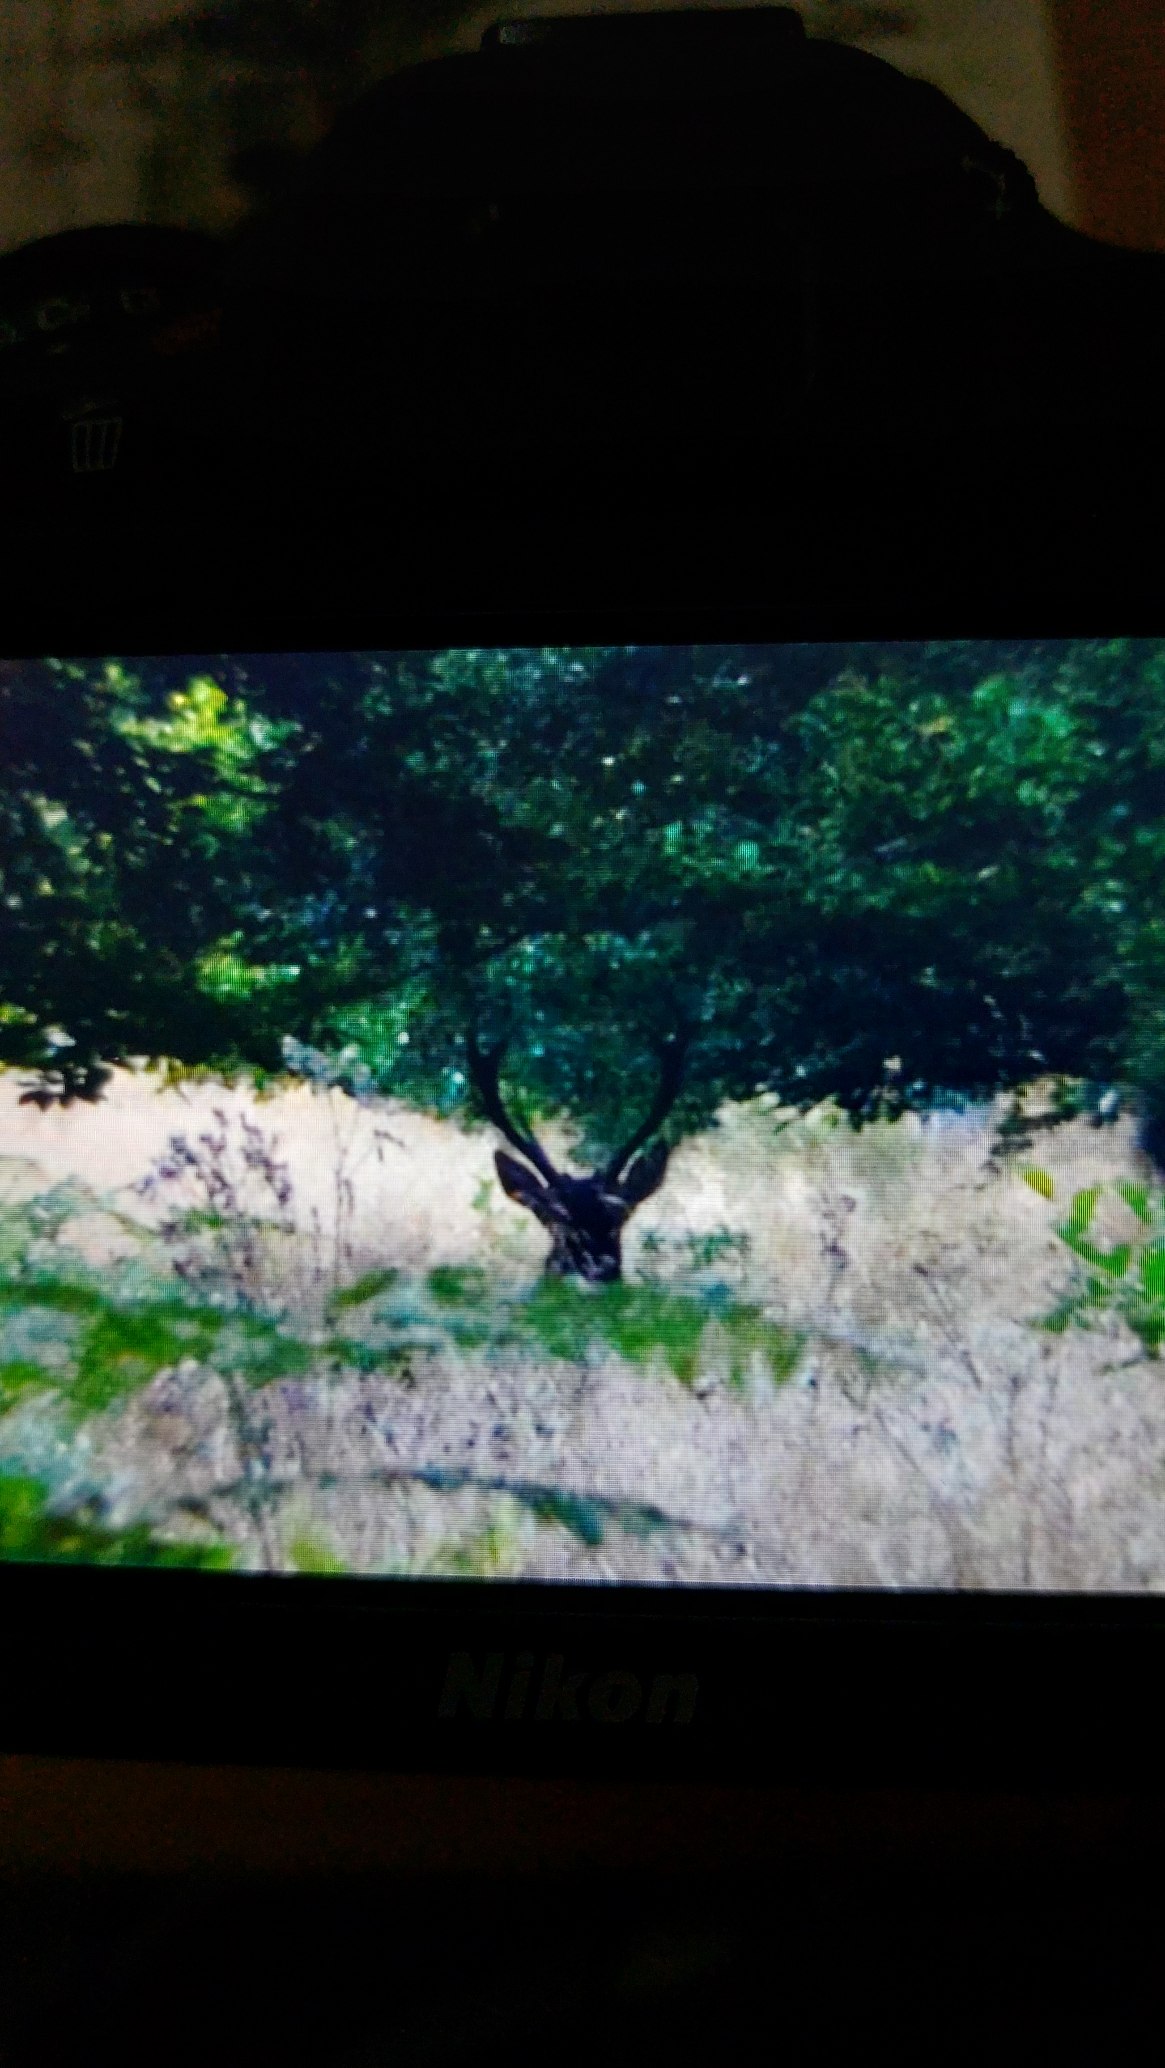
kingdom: Animalia
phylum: Chordata
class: Mammalia
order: Artiodactyla
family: Cervidae
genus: Cervus
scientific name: Cervus elaphus
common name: Krondyr
